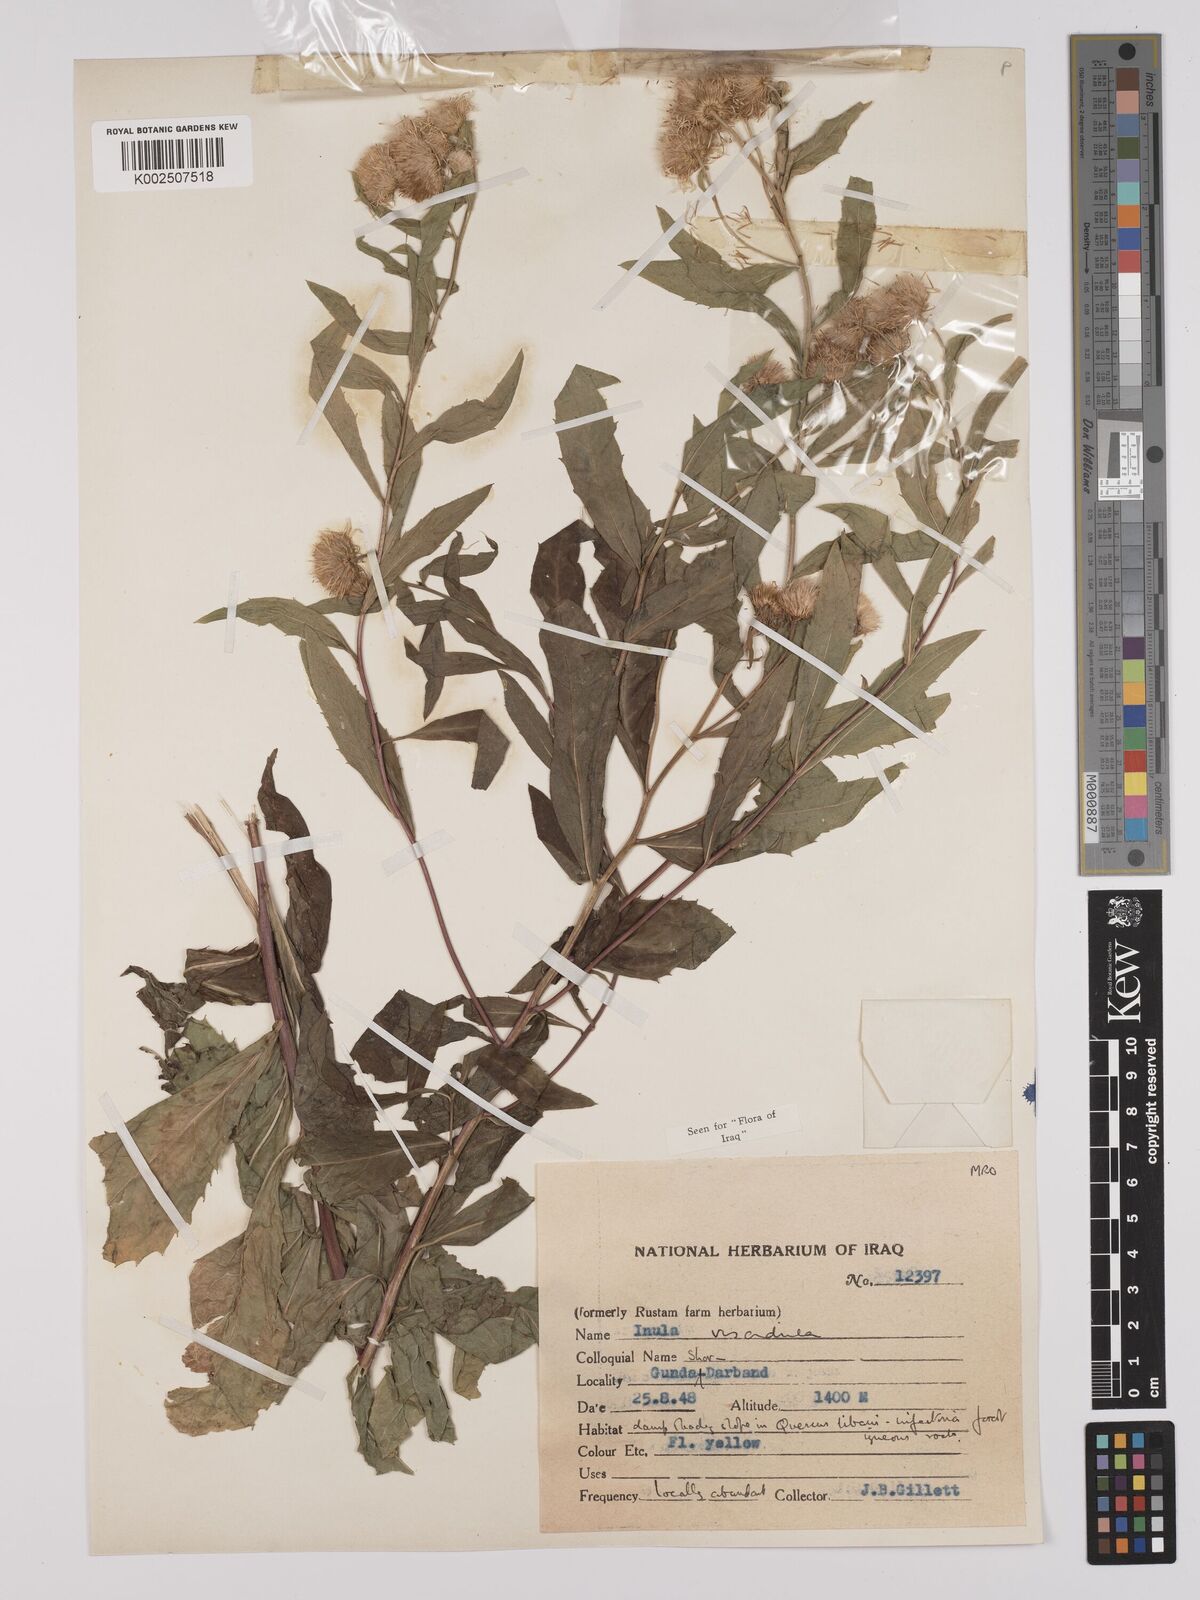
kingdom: Plantae
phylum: Tracheophyta
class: Magnoliopsida
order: Asterales
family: Asteraceae
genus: Inula
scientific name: Inula
